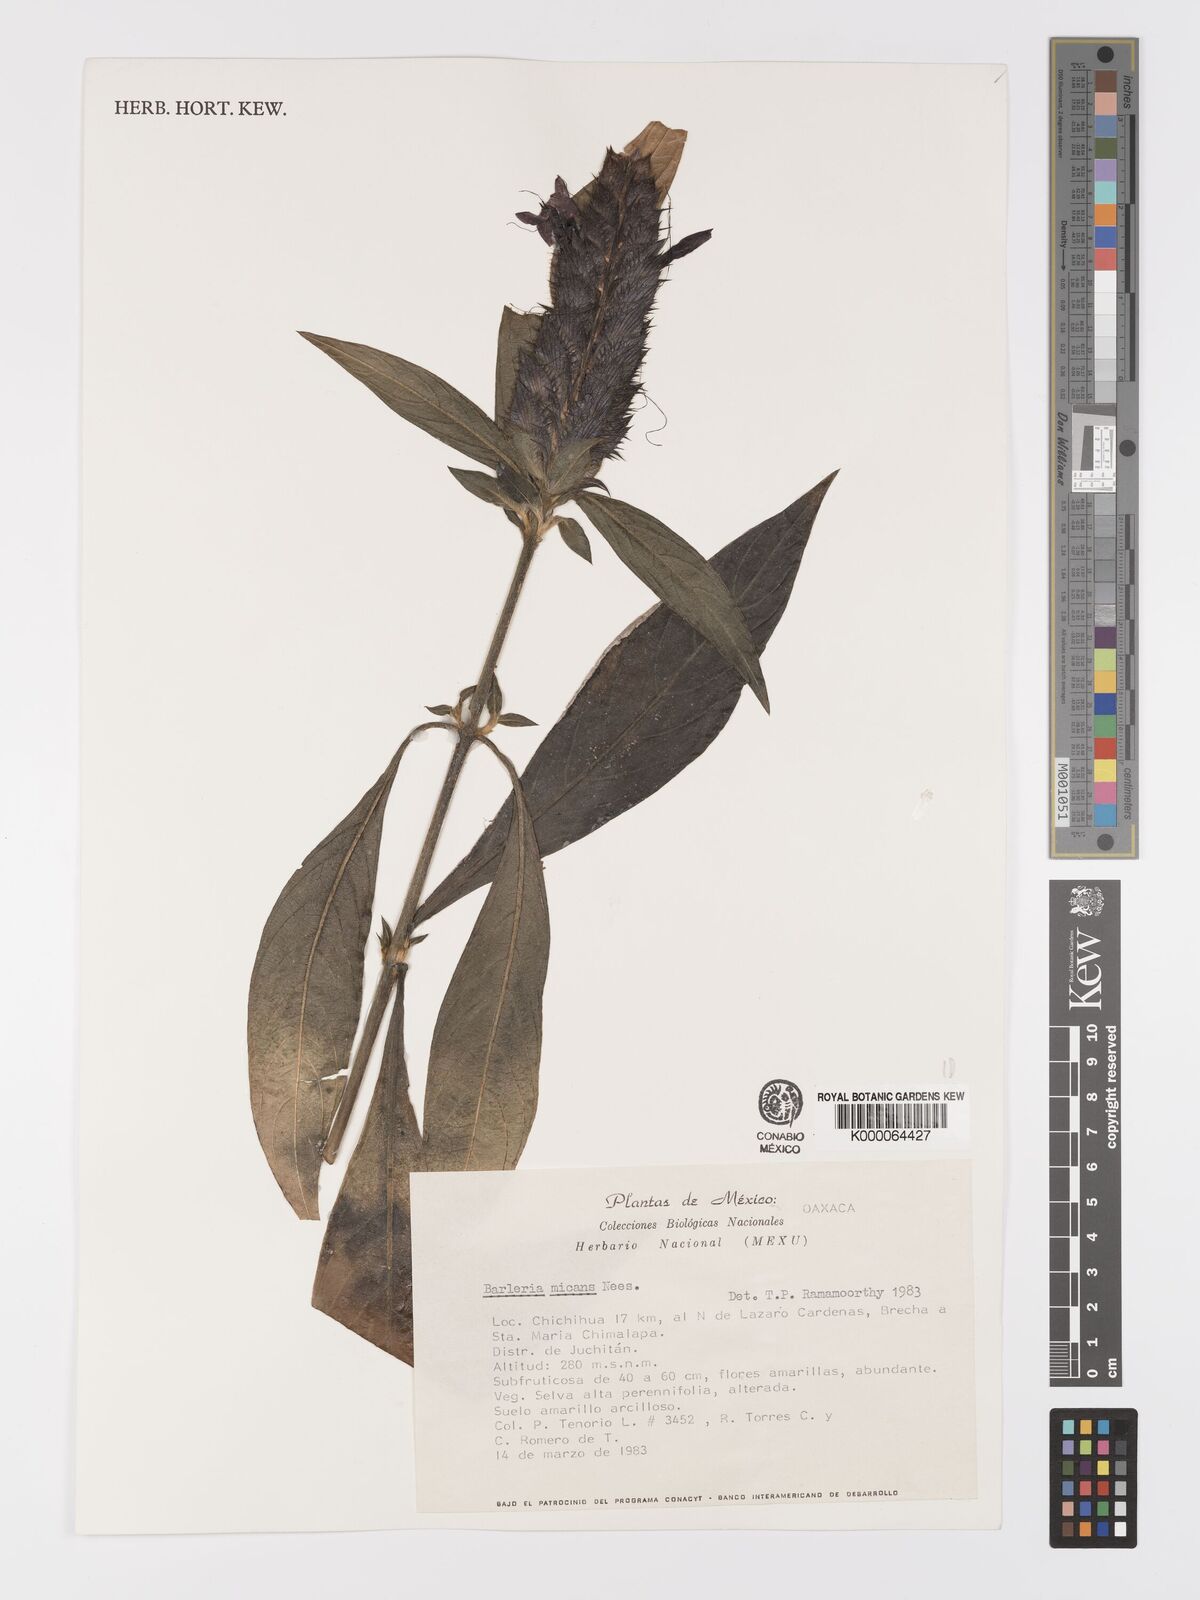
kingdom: Plantae
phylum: Tracheophyta
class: Magnoliopsida
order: Lamiales
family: Acanthaceae
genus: Barleria
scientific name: Barleria oenotheroides
